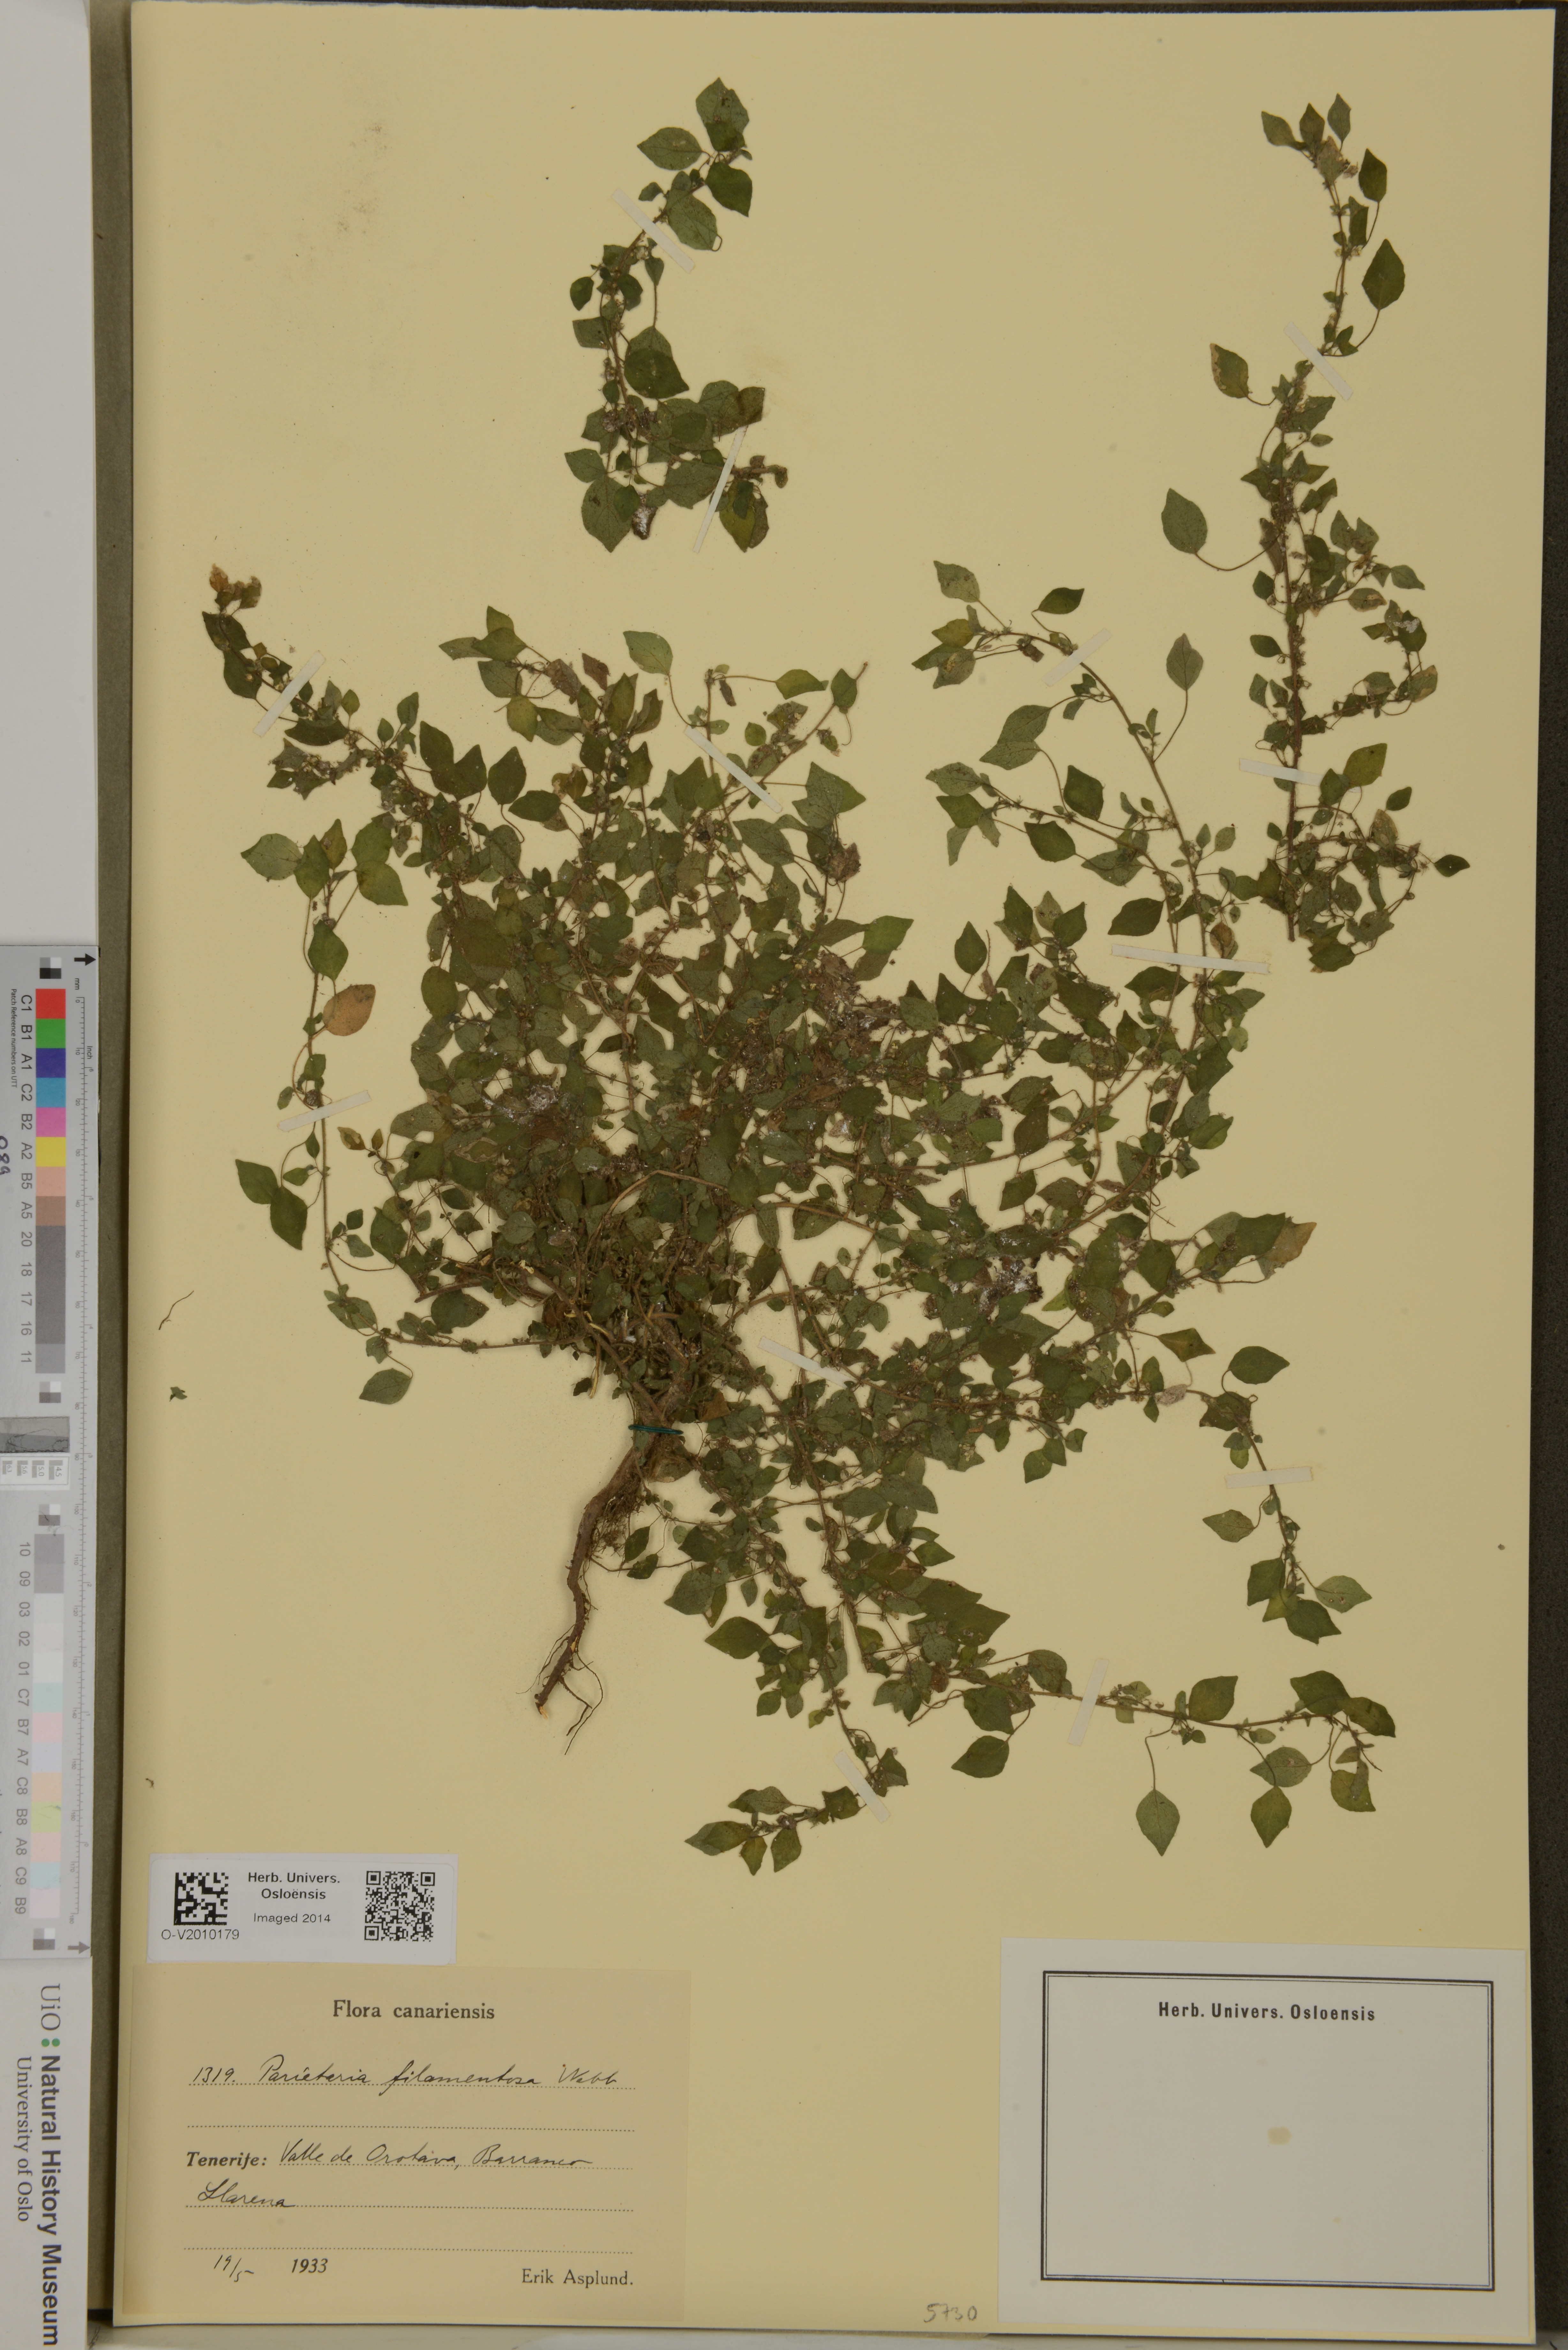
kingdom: Plantae
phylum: Tracheophyta
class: Magnoliopsida
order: Rosales
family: Urticaceae
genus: Parietaria
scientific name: Parietaria filamentosa
